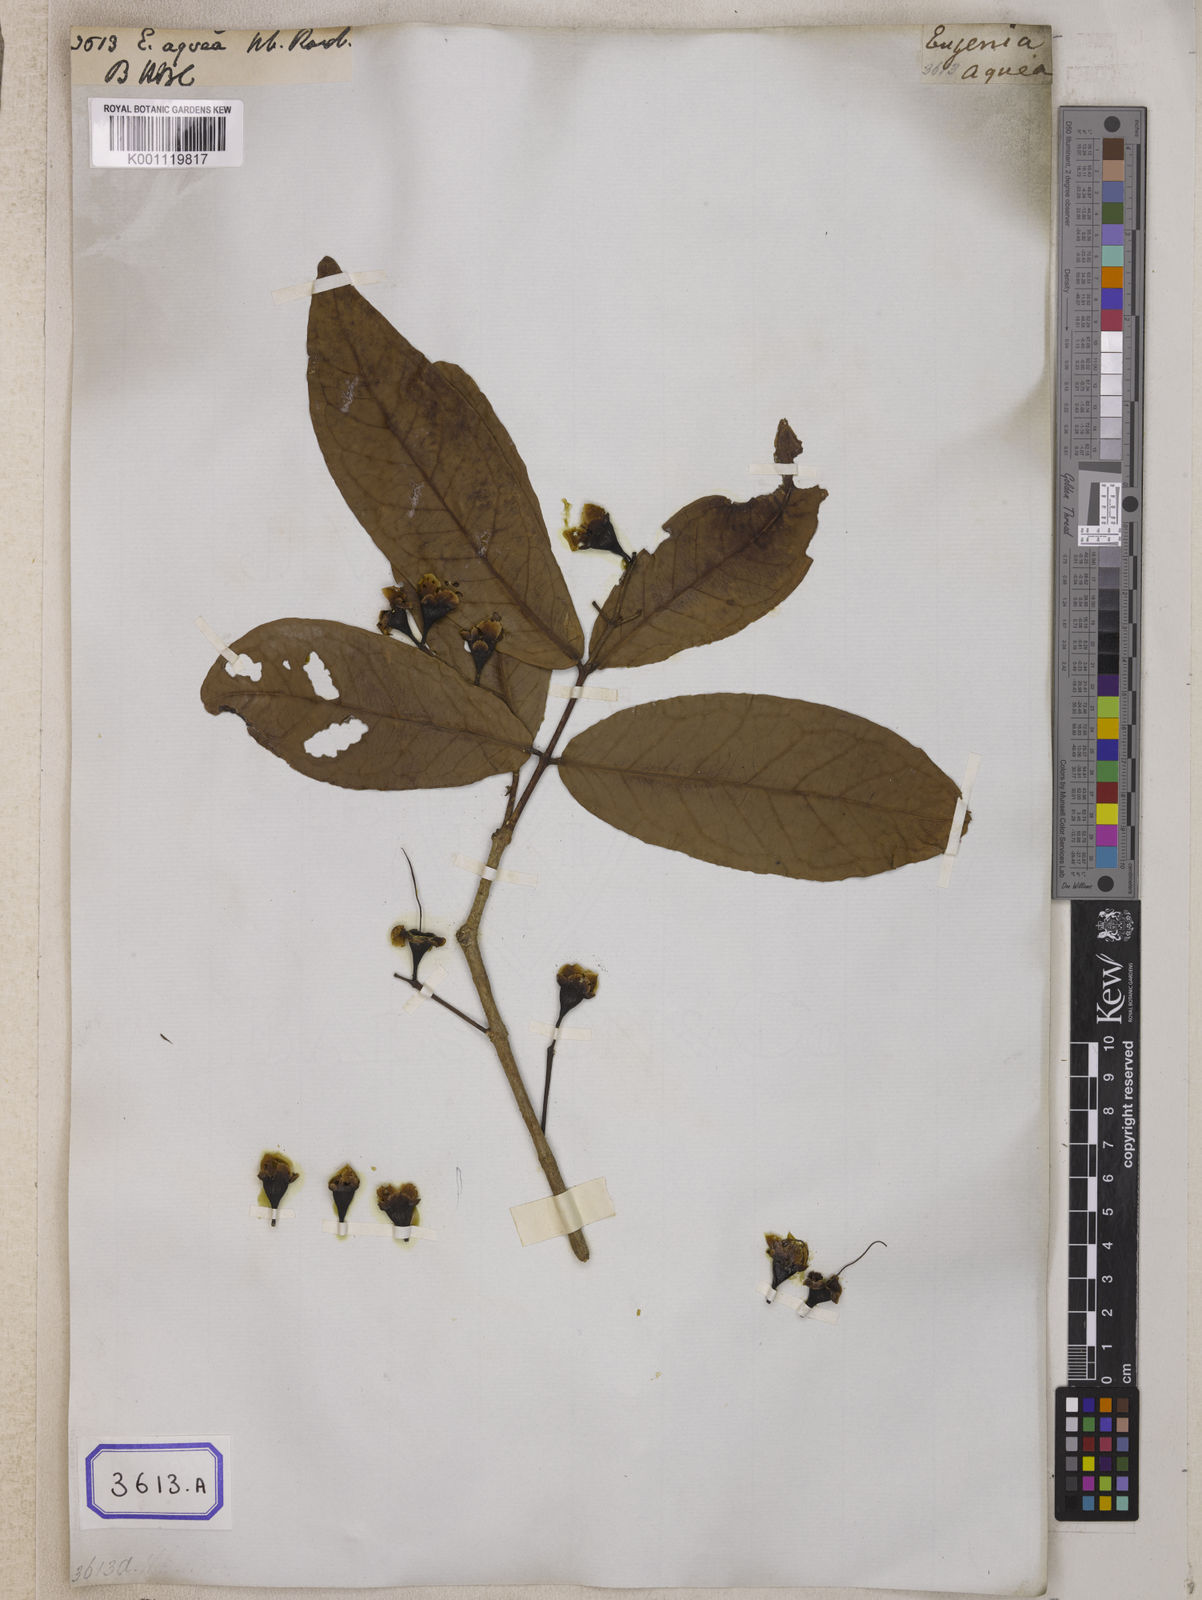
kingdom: Plantae
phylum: Tracheophyta
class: Magnoliopsida
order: Myrtales
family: Myrtaceae
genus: Syzygium
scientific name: Syzygium aqueum
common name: Water-apple
